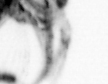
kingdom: Animalia
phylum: Arthropoda
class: Copepoda
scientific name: Copepoda
